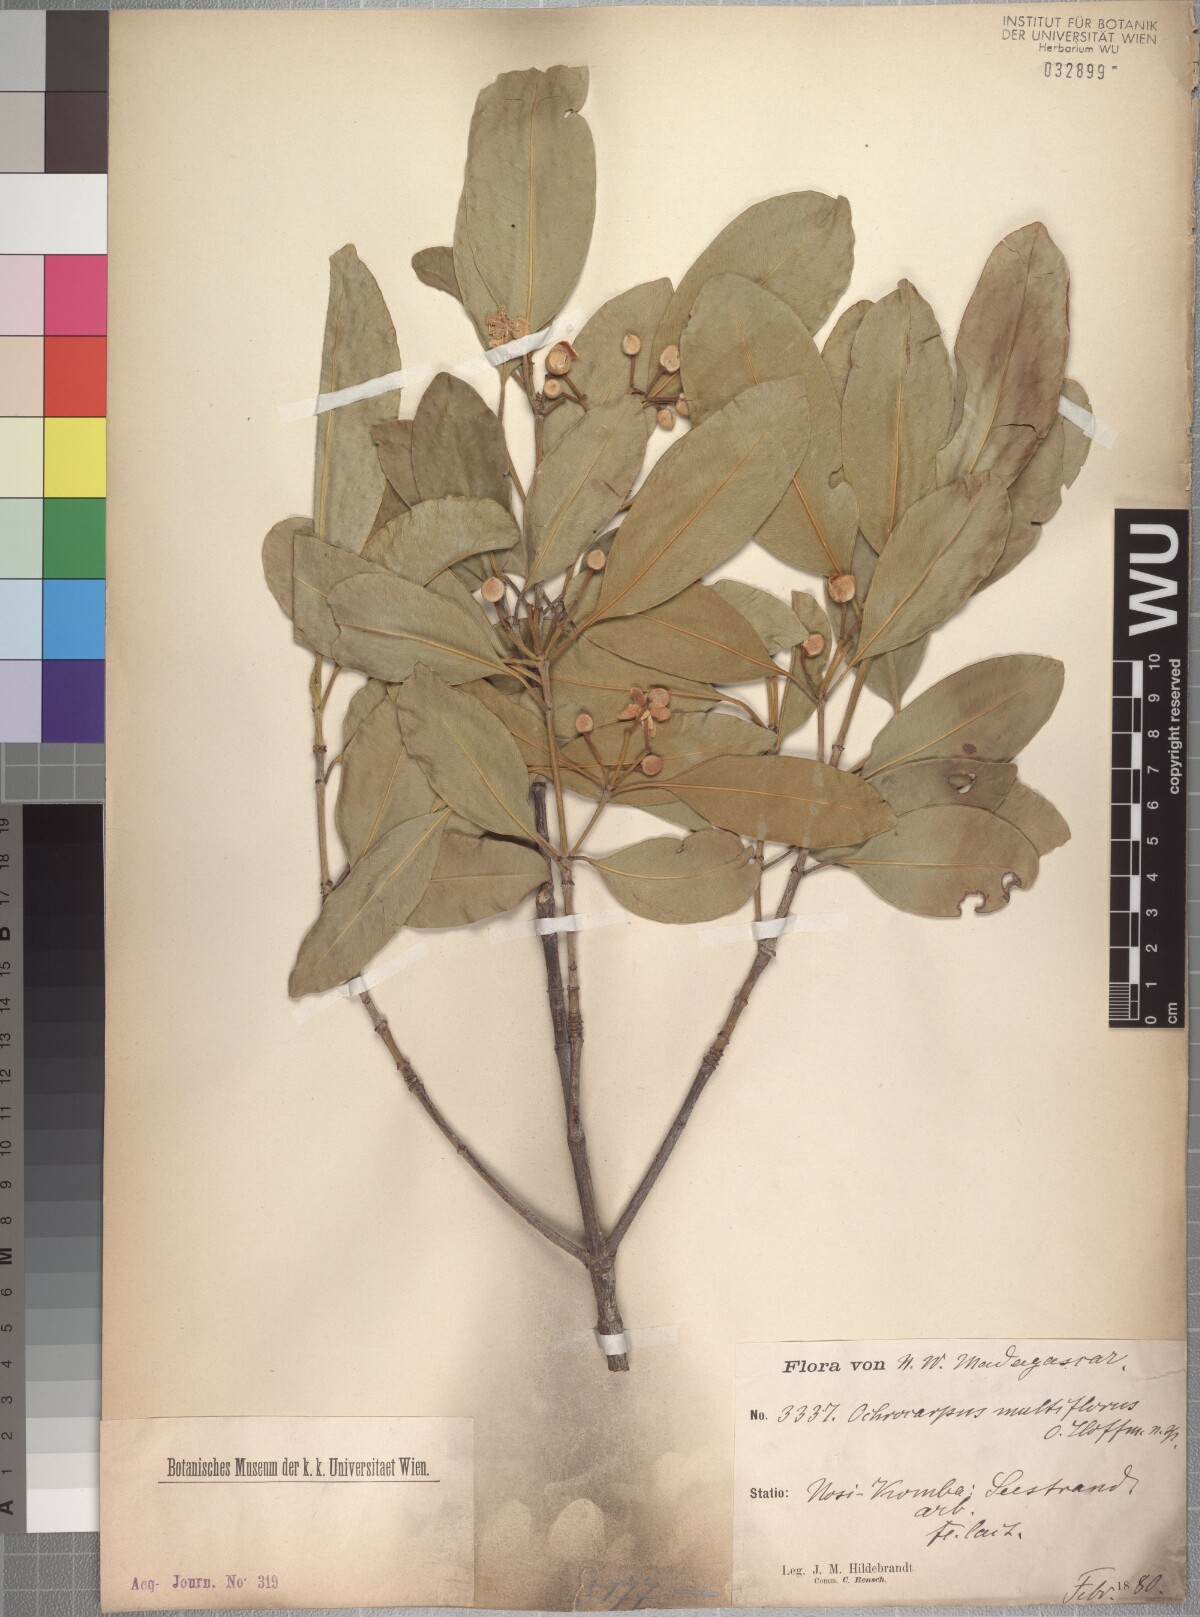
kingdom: Plantae
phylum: Tracheophyta
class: Magnoliopsida
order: Malpighiales
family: Clusiaceae
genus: Garcinia
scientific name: Garcinia evonymoides
